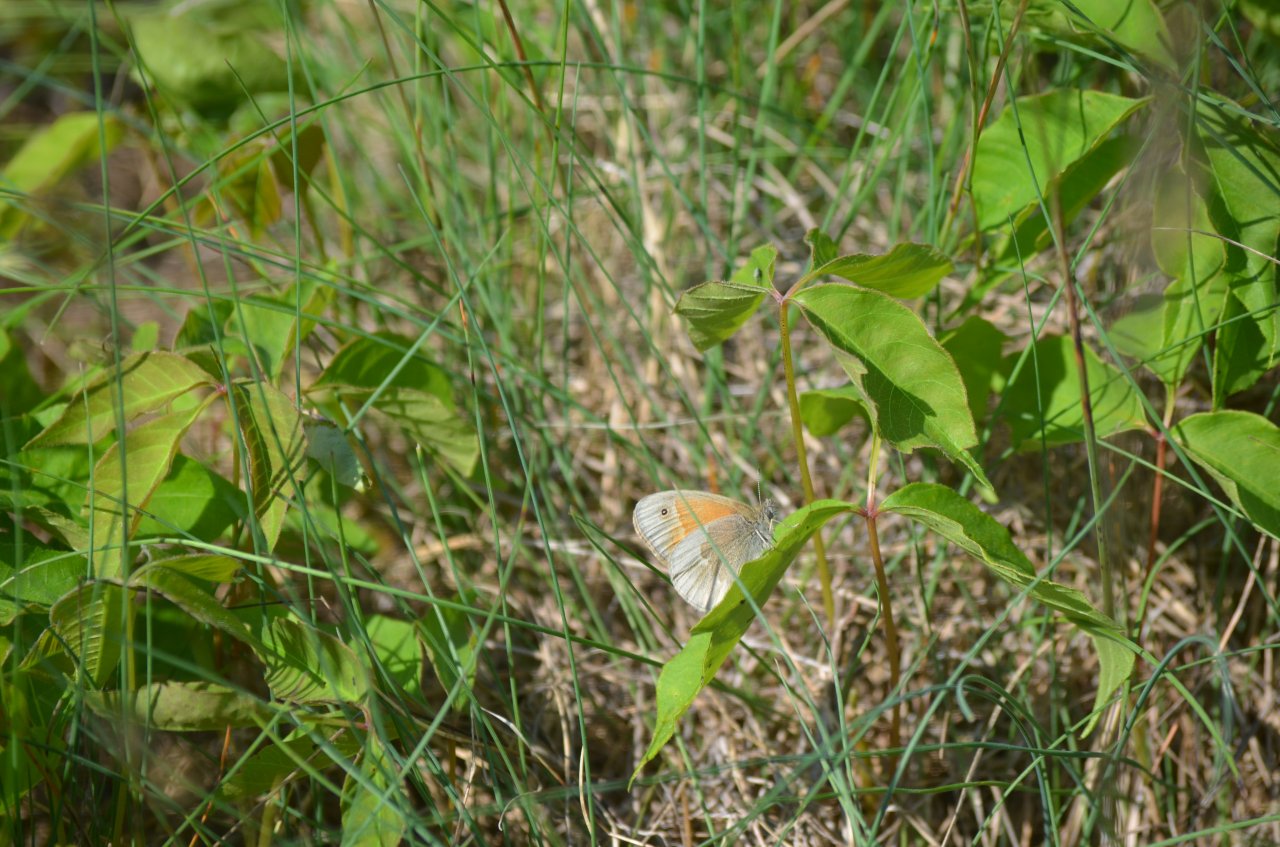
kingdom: Animalia
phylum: Arthropoda
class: Insecta
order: Lepidoptera
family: Nymphalidae
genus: Coenonympha
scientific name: Coenonympha tullia
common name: Large Heath
